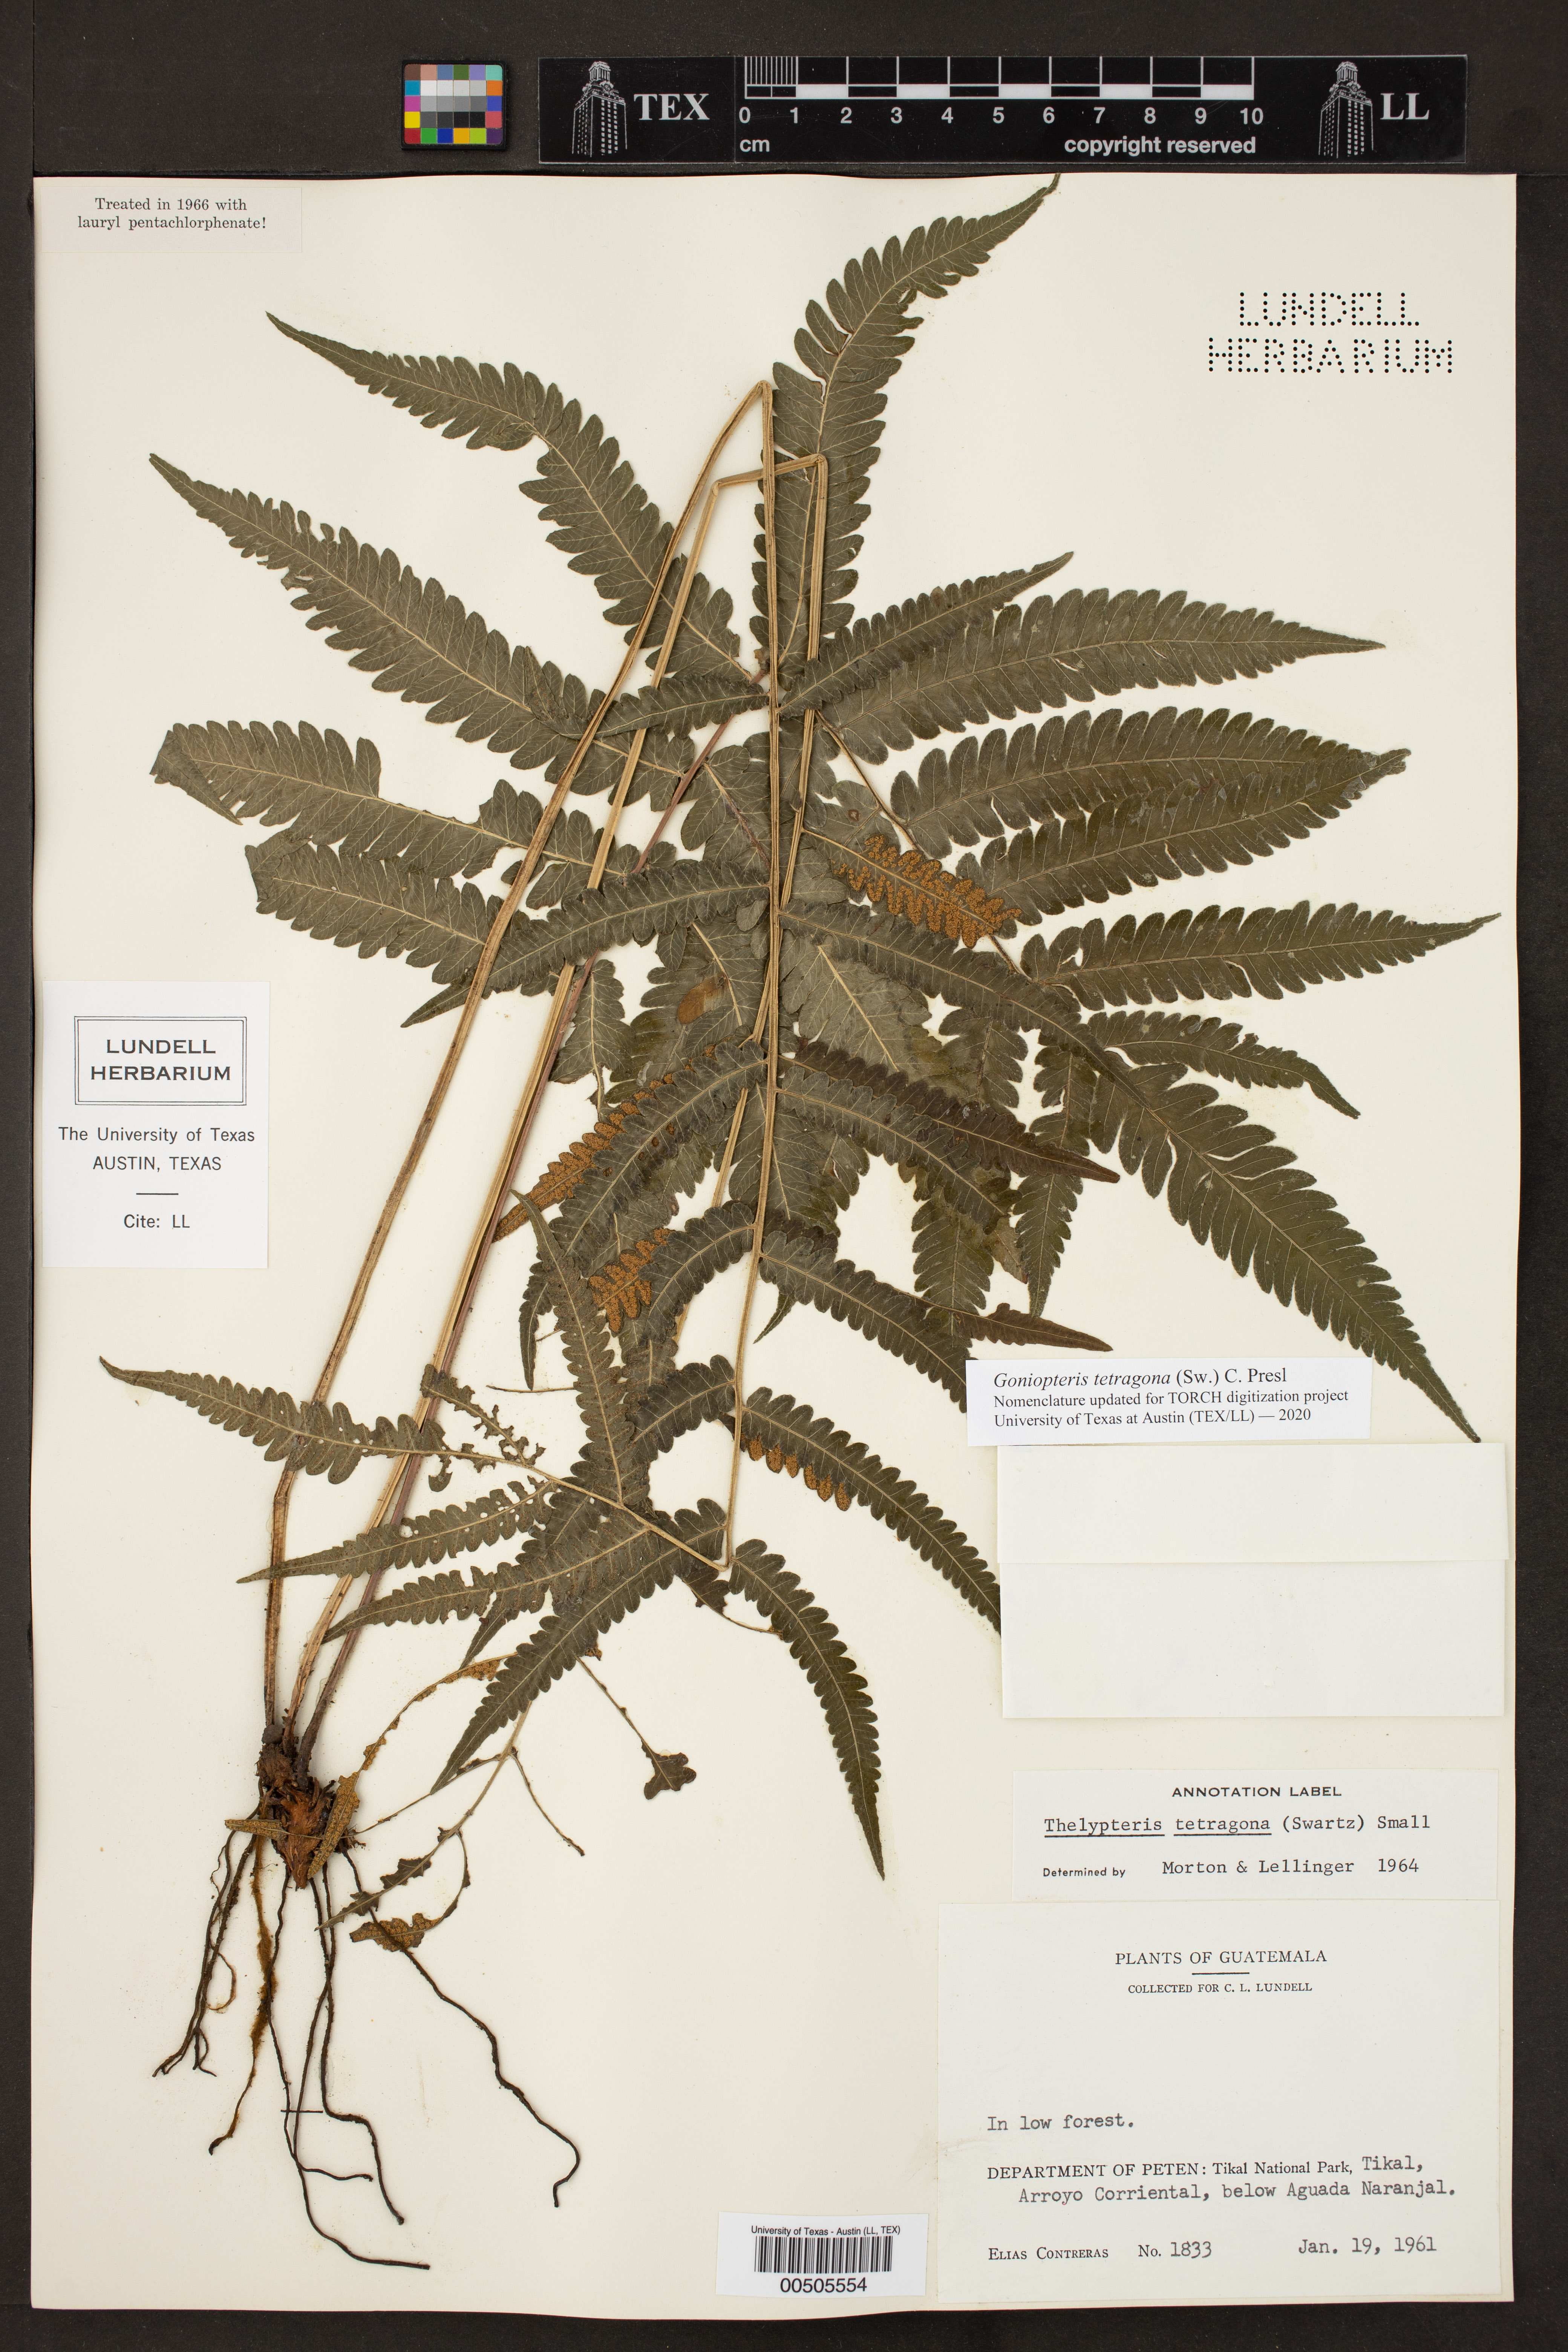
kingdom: Plantae
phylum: Tracheophyta
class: Polypodiopsida
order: Polypodiales
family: Thelypteridaceae
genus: Goniopteris
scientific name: Goniopteris tetragona
